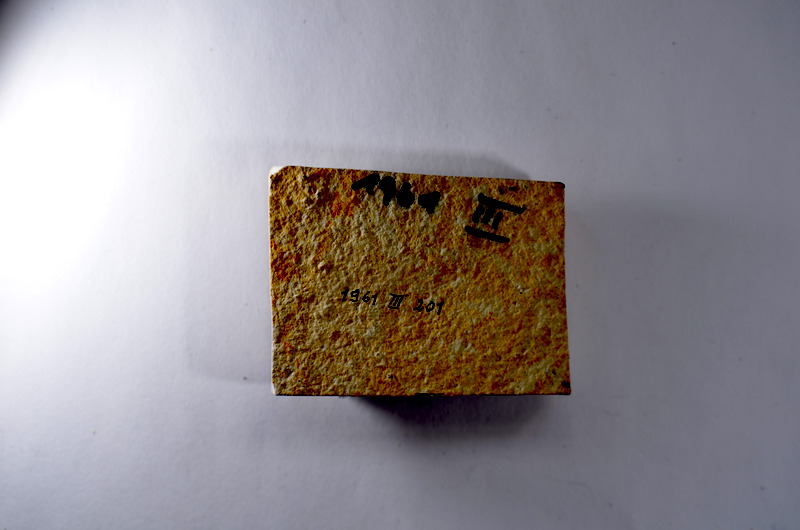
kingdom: Animalia
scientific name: Animalia
